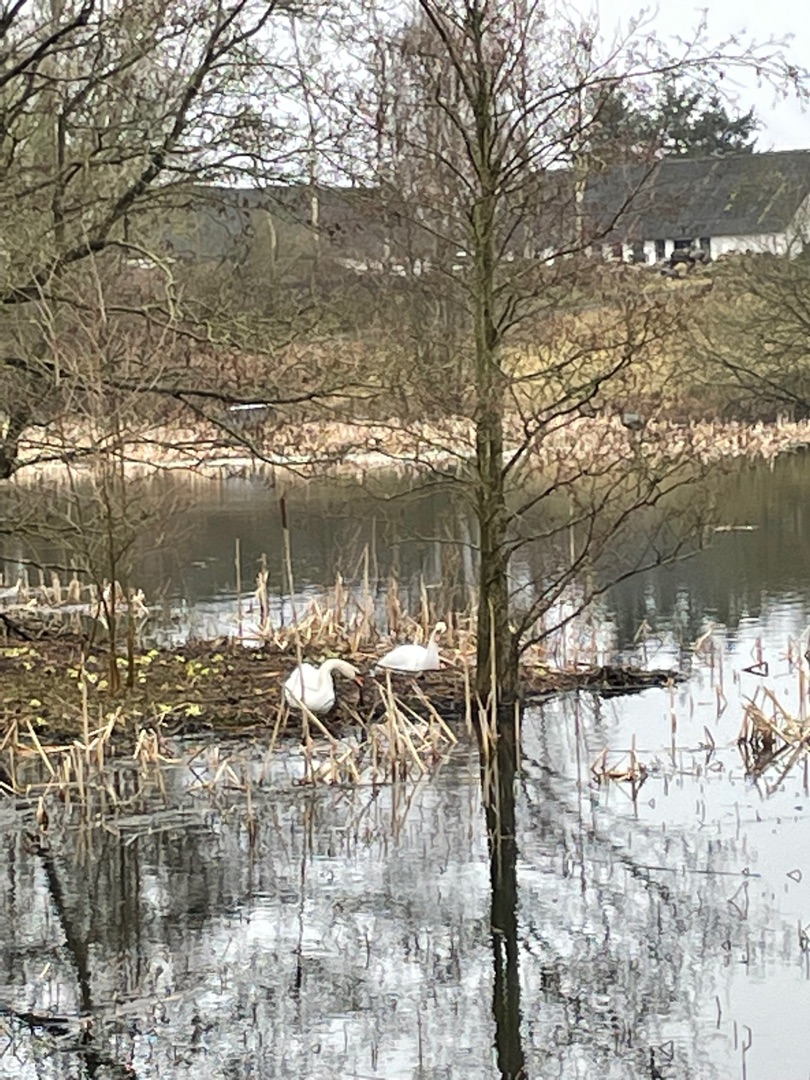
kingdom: Animalia
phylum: Chordata
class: Aves
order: Anseriformes
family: Anatidae
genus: Cygnus
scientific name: Cygnus olor
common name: Knopsvane
